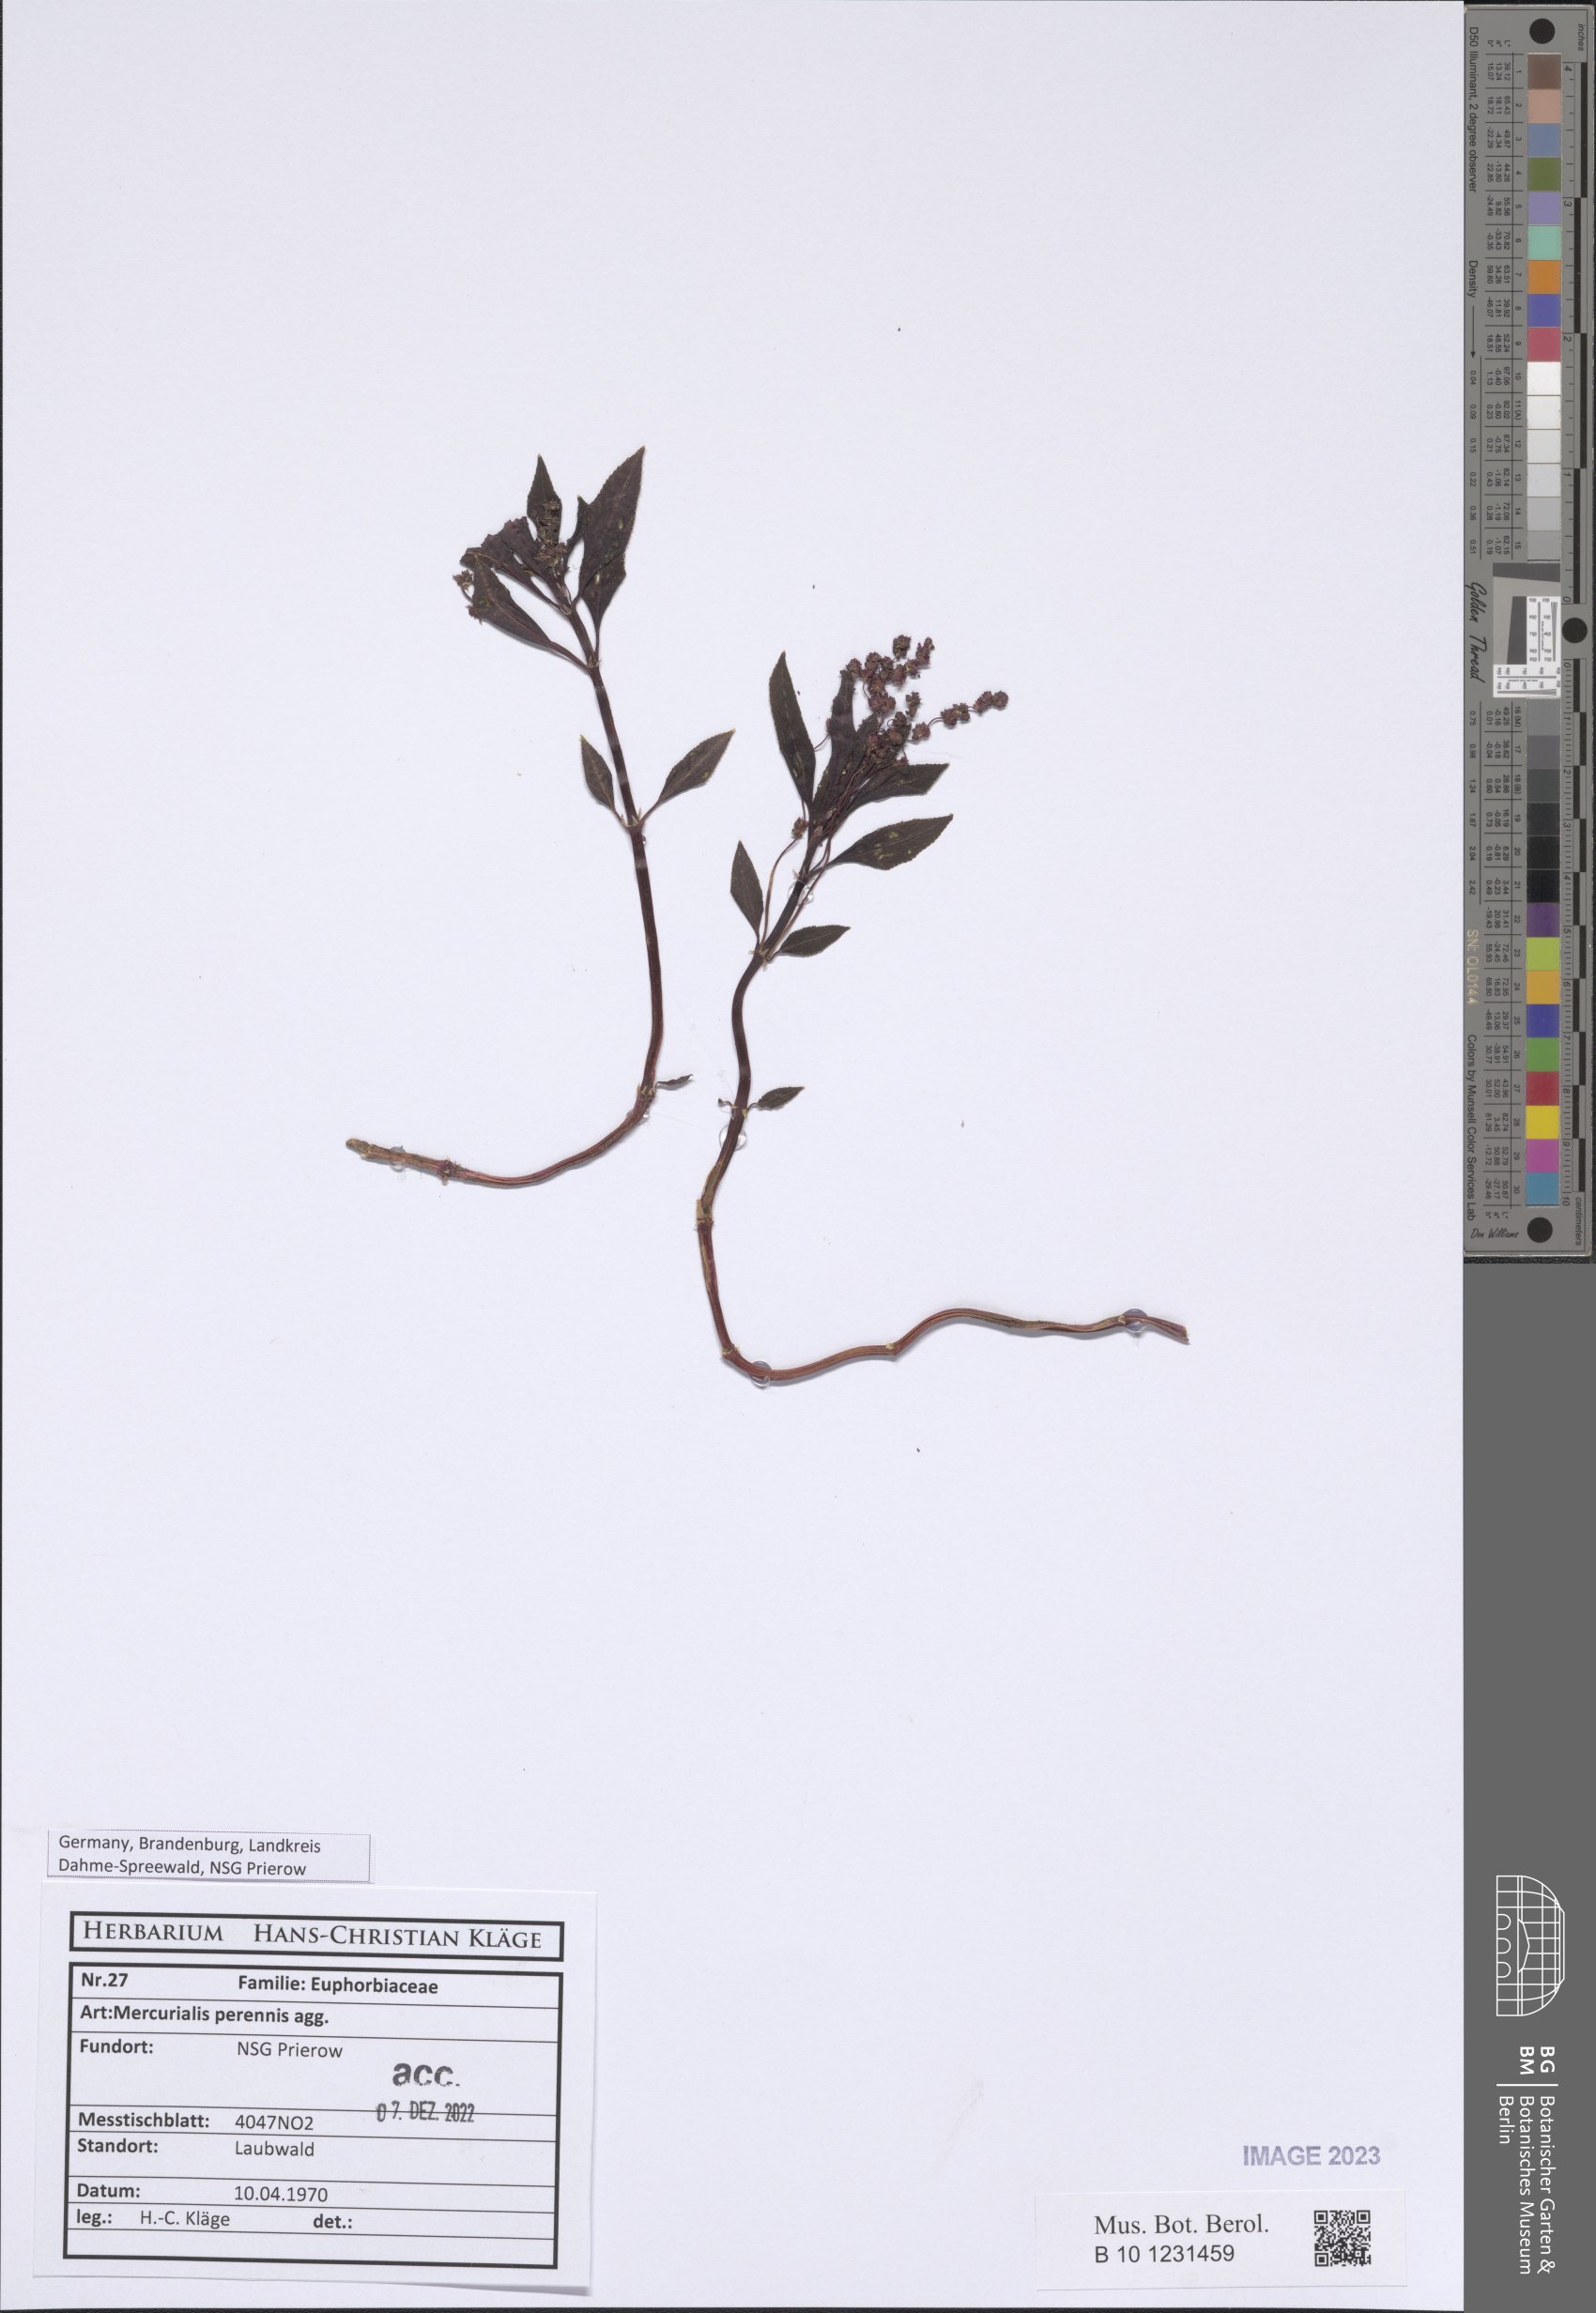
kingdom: Plantae
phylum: Tracheophyta
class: Magnoliopsida
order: Malpighiales
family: Euphorbiaceae
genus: Mercurialis
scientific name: Mercurialis perennis
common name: Dog mercury
